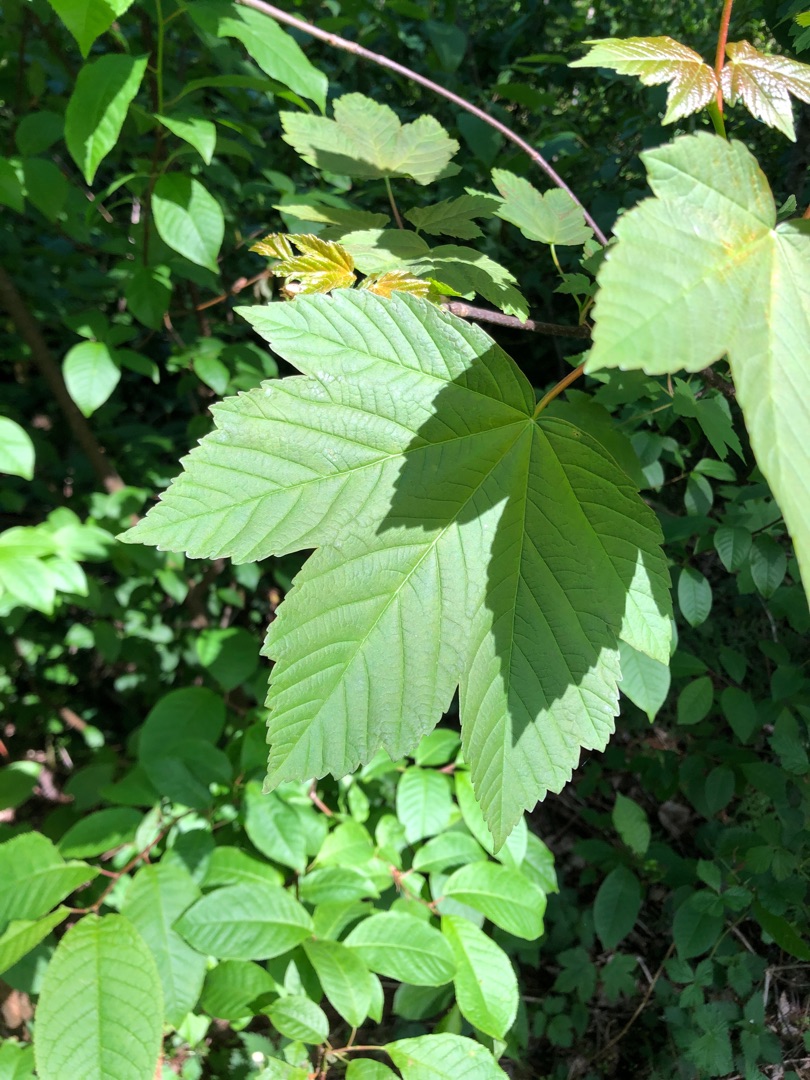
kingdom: Plantae
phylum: Tracheophyta
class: Magnoliopsida
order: Sapindales
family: Sapindaceae
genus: Acer
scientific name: Acer pseudoplatanus
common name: Ahorn
